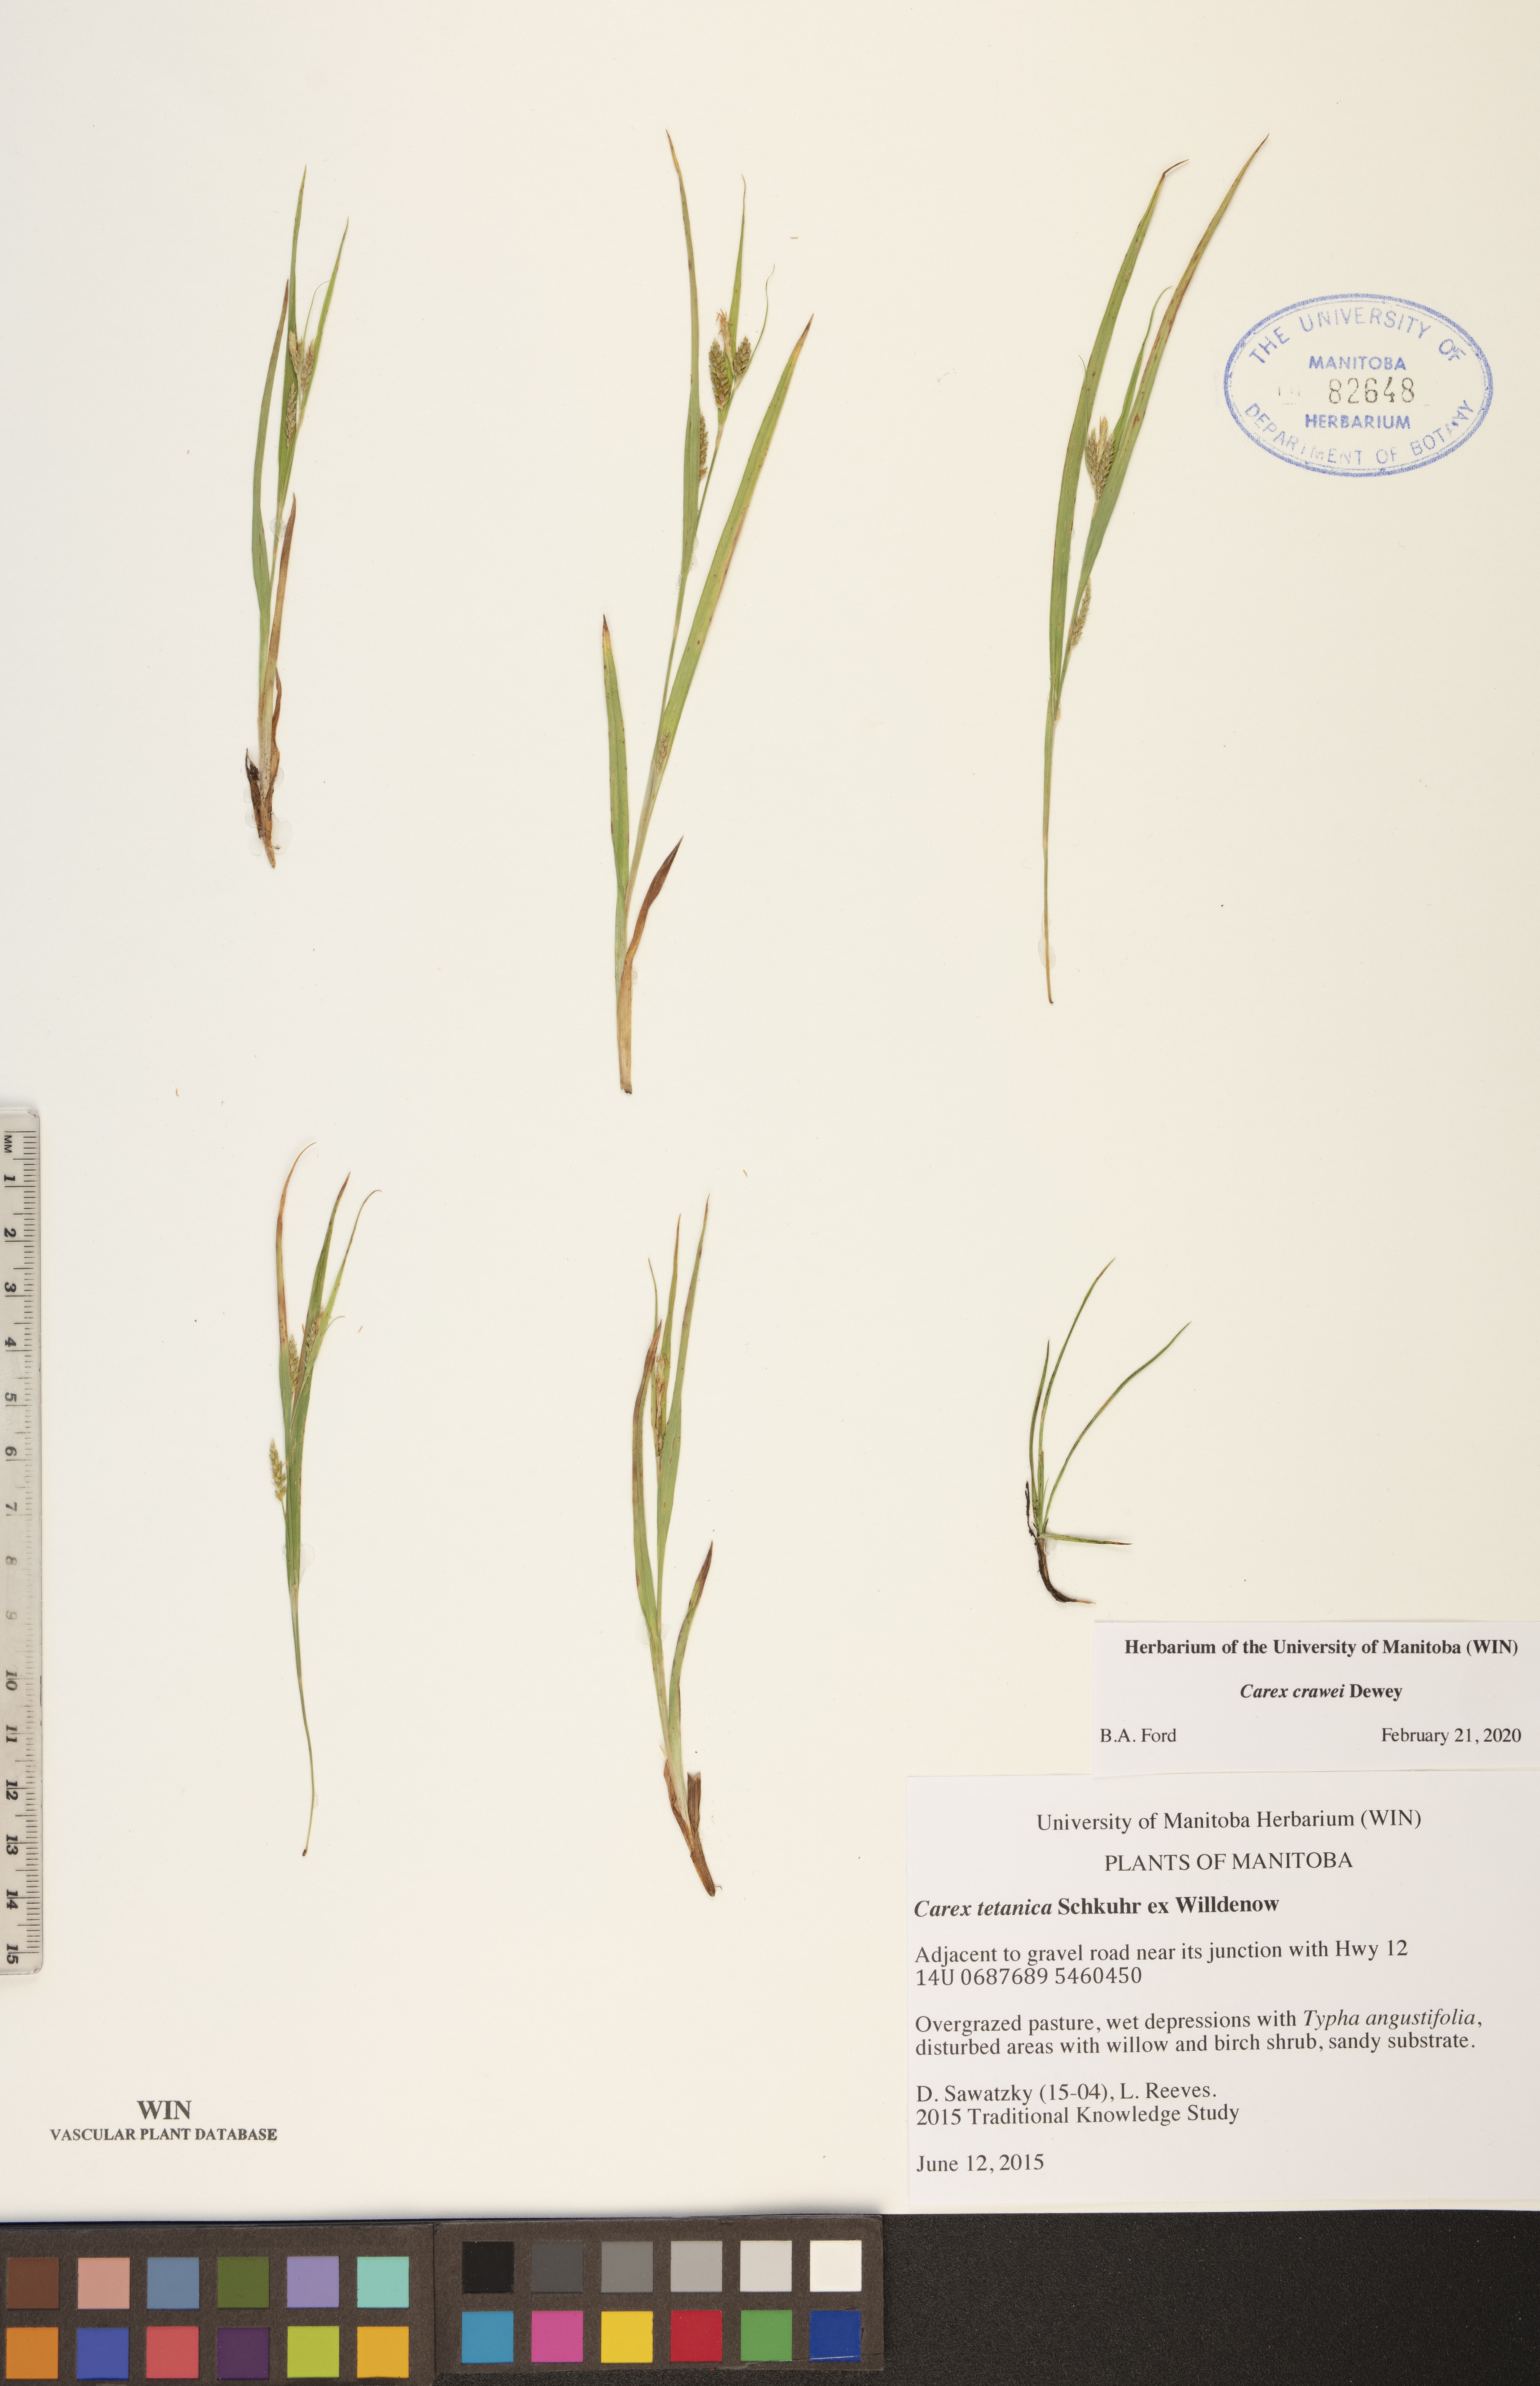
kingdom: Plantae
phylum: Tracheophyta
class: Liliopsida
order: Poales
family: Cyperaceae
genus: Carex
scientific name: Carex crawei
